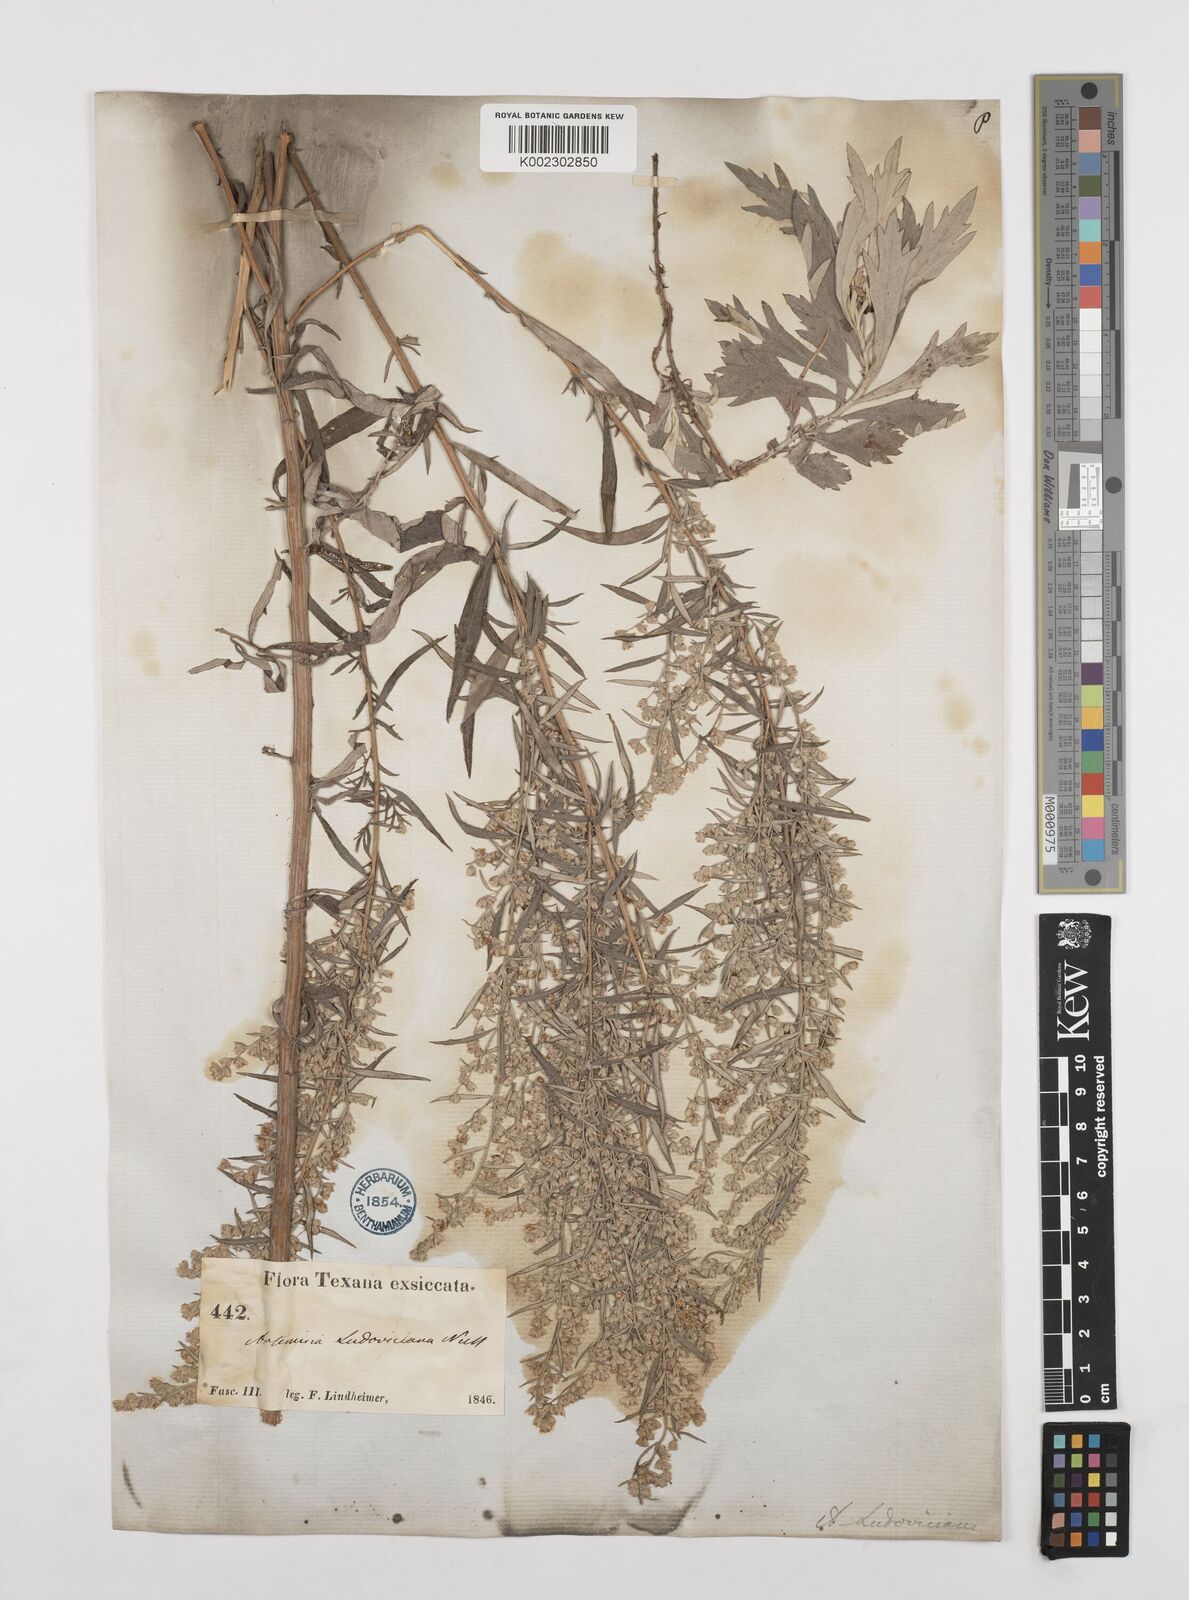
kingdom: Plantae
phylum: Tracheophyta
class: Magnoliopsida
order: Asterales
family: Asteraceae
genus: Artemisia
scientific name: Artemisia ludoviciana
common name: Western mugwort
